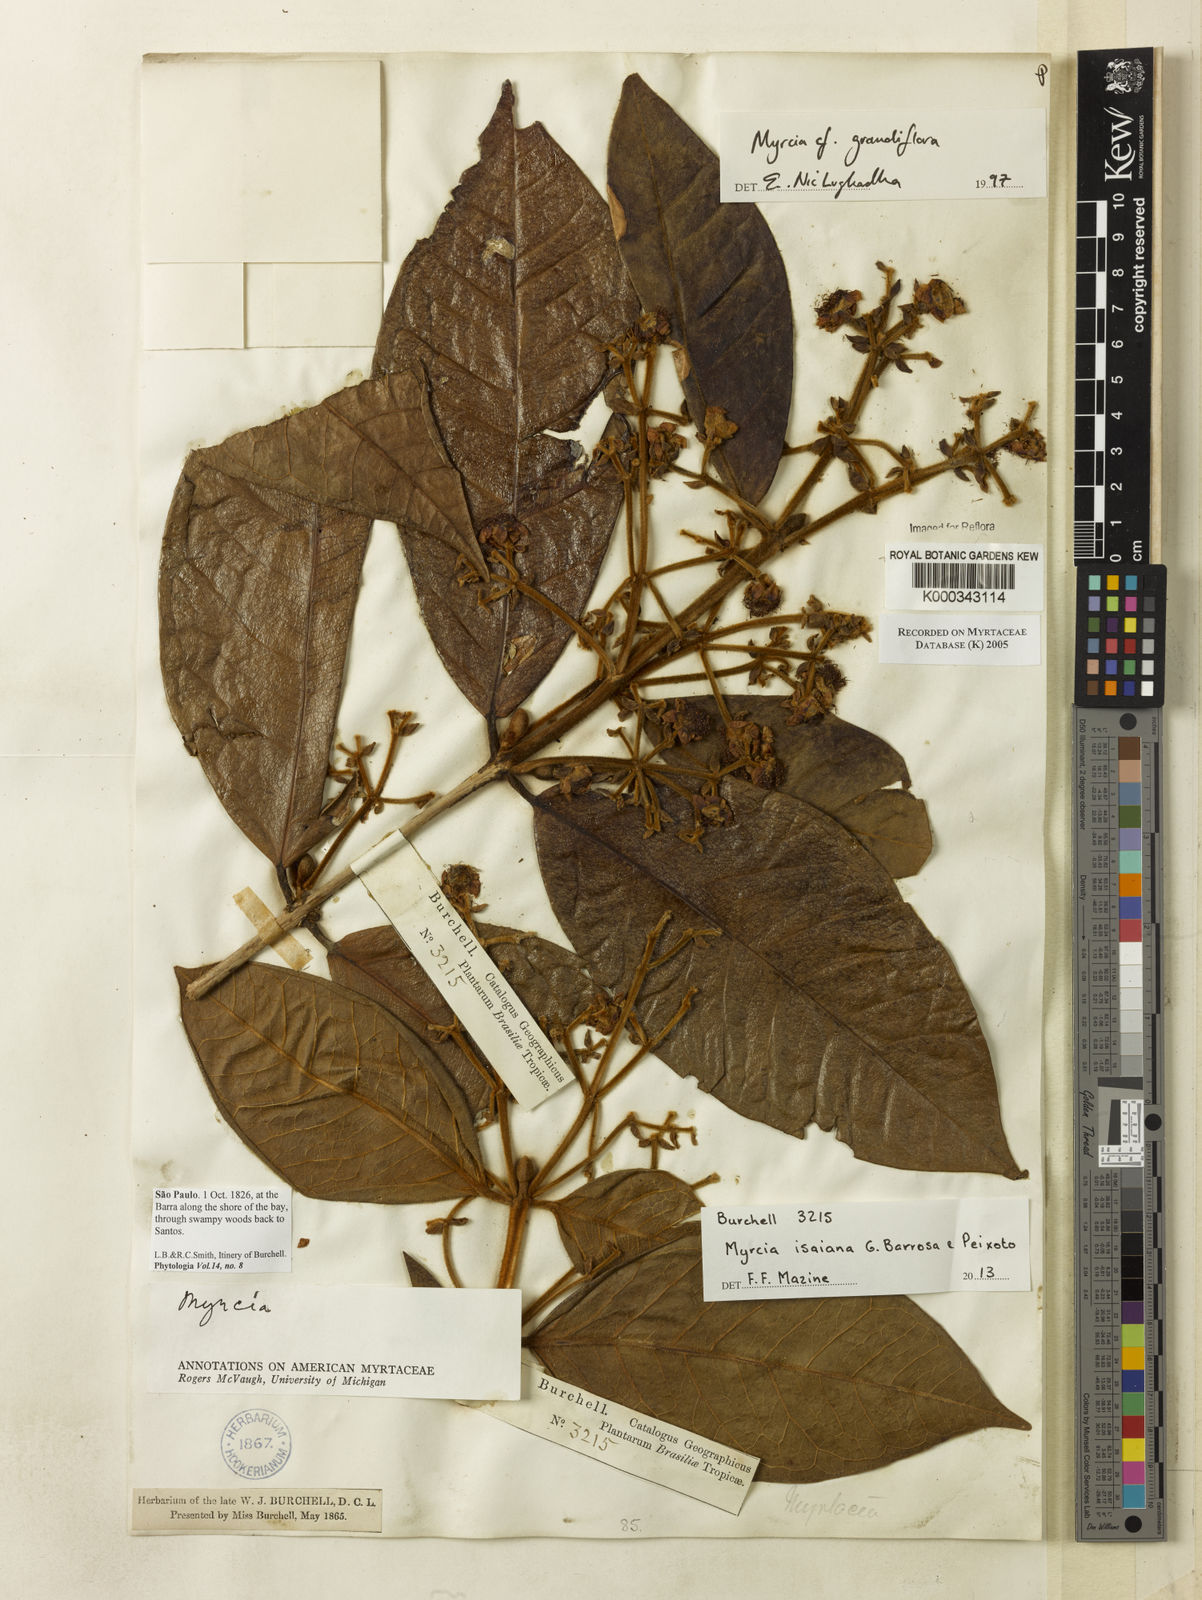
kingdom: Plantae
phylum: Tracheophyta
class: Magnoliopsida
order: Myrtales
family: Myrtaceae
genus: Myrcia
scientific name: Myrcia bathisiifolia
